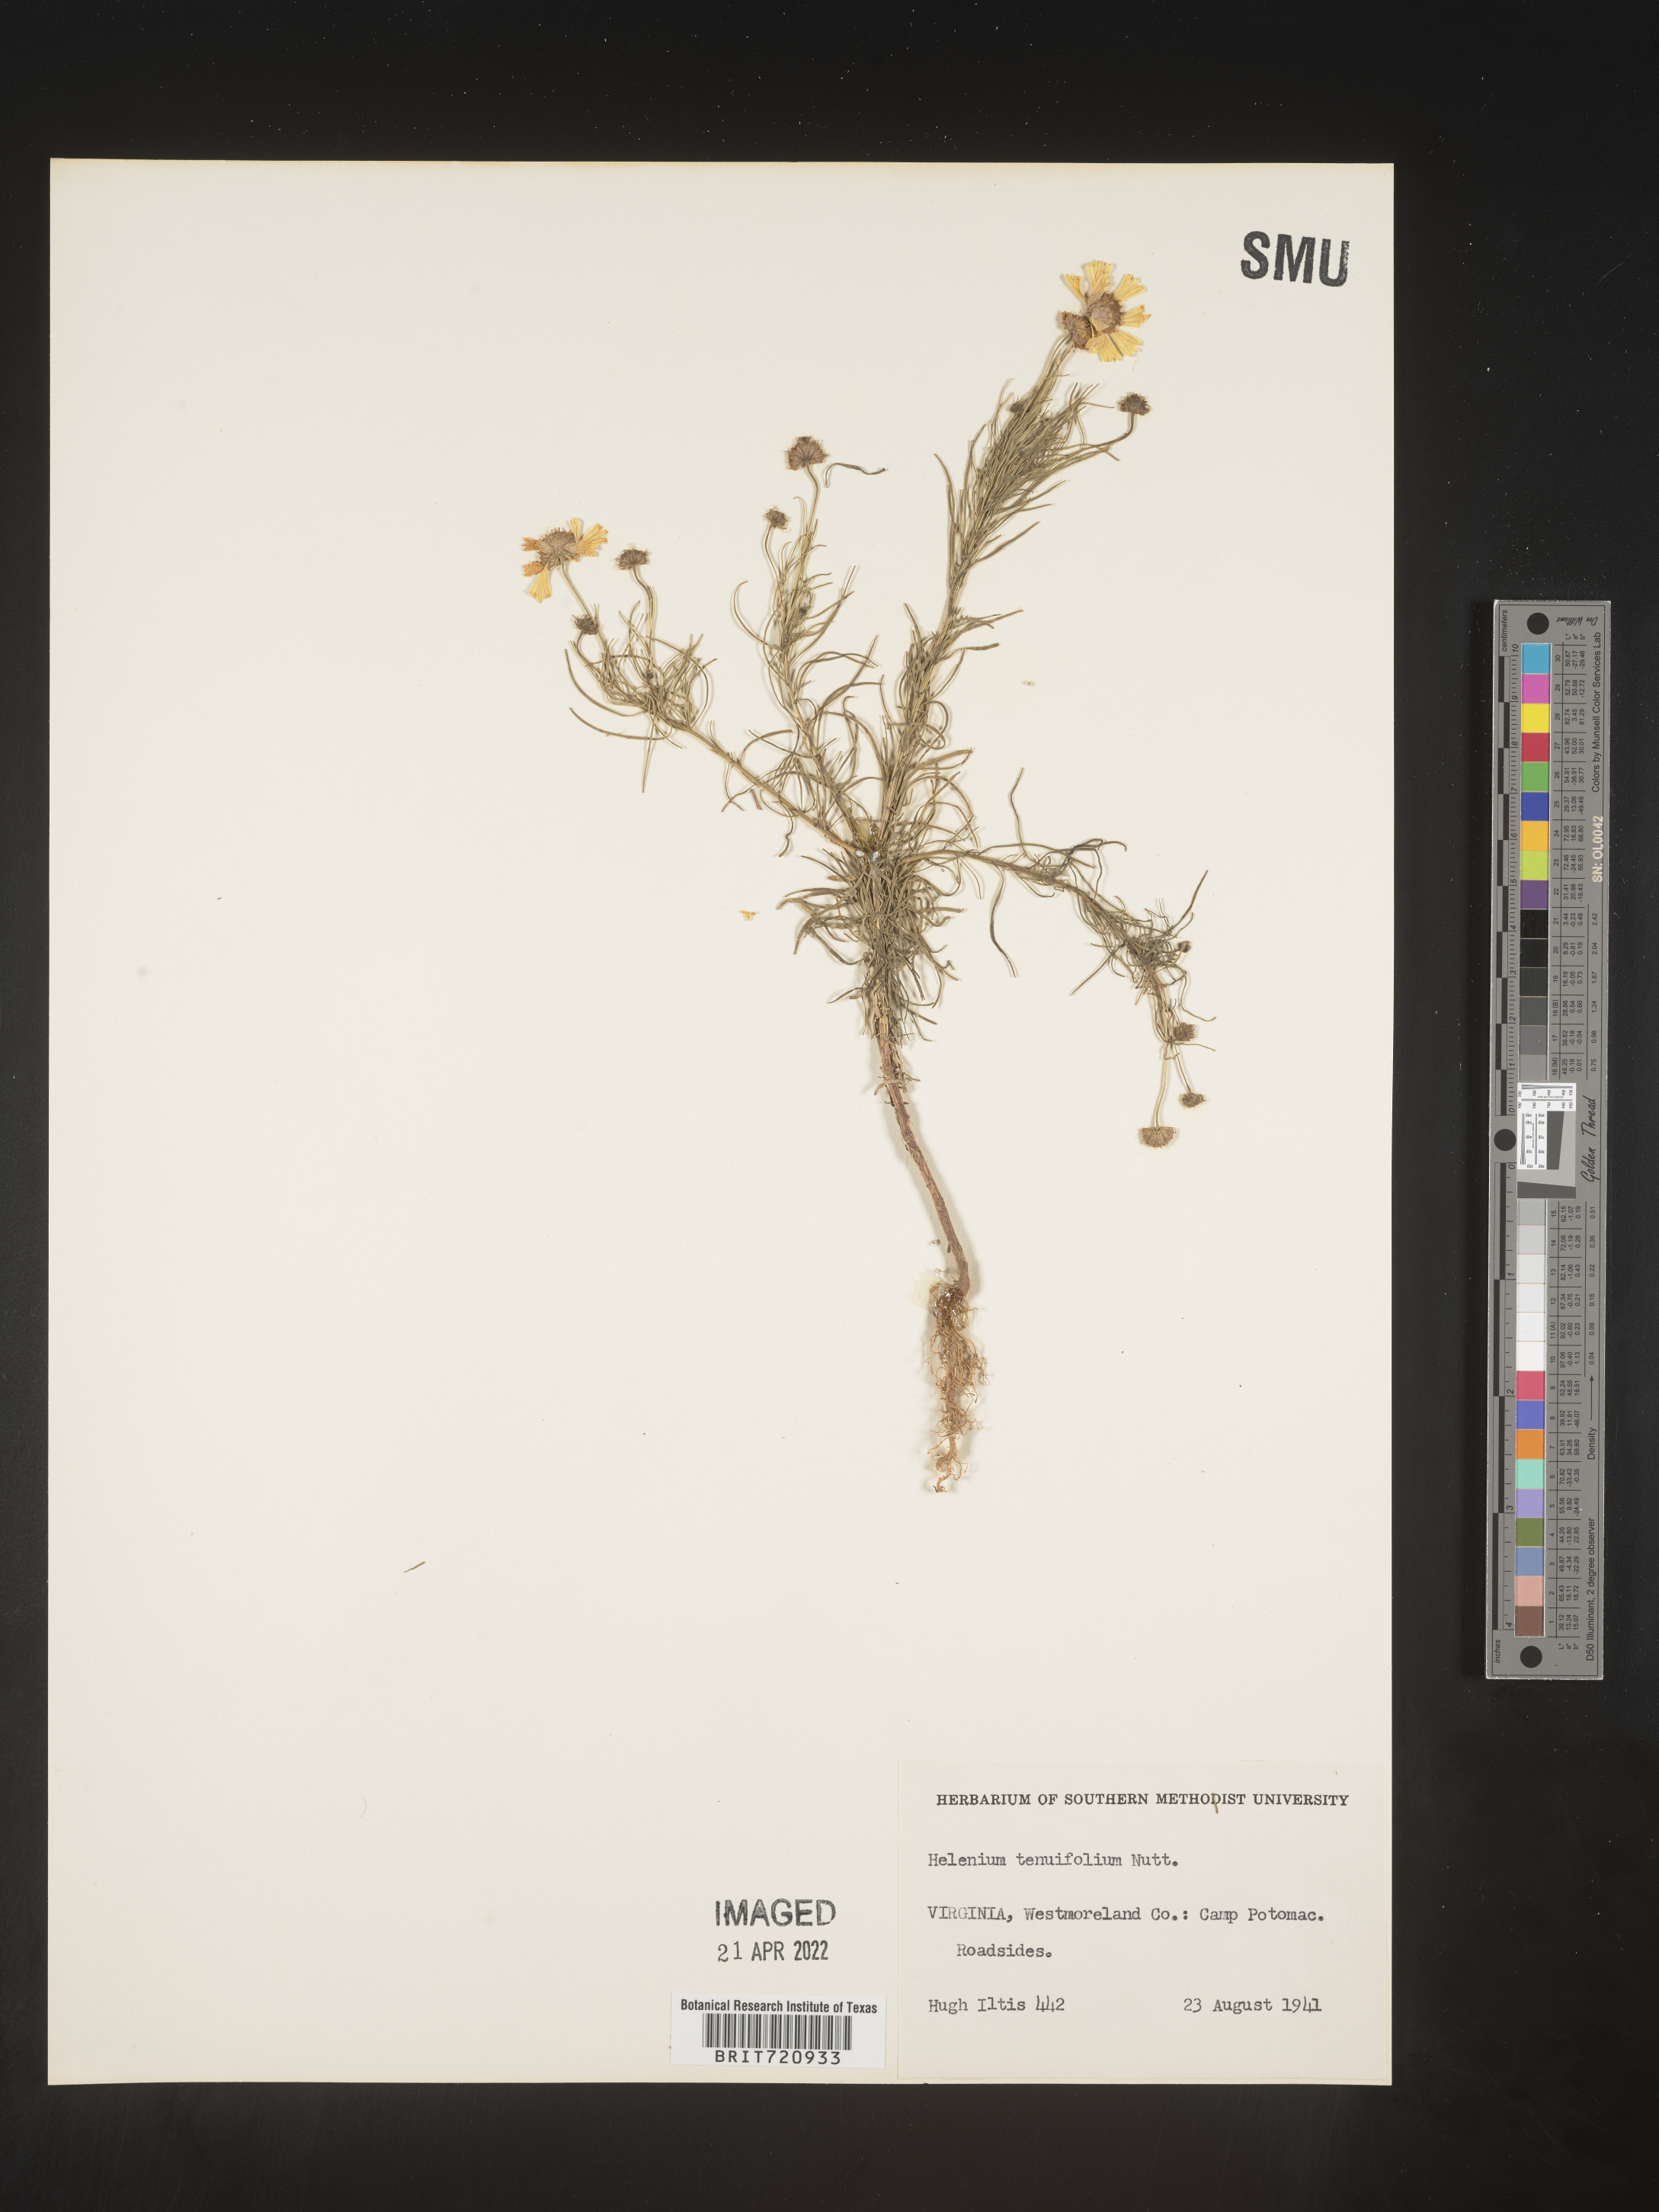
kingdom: Plantae
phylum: Tracheophyta
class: Magnoliopsida
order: Asterales
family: Asteraceae
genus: Helenium
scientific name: Helenium amarum
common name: Bitter sneezeweed
